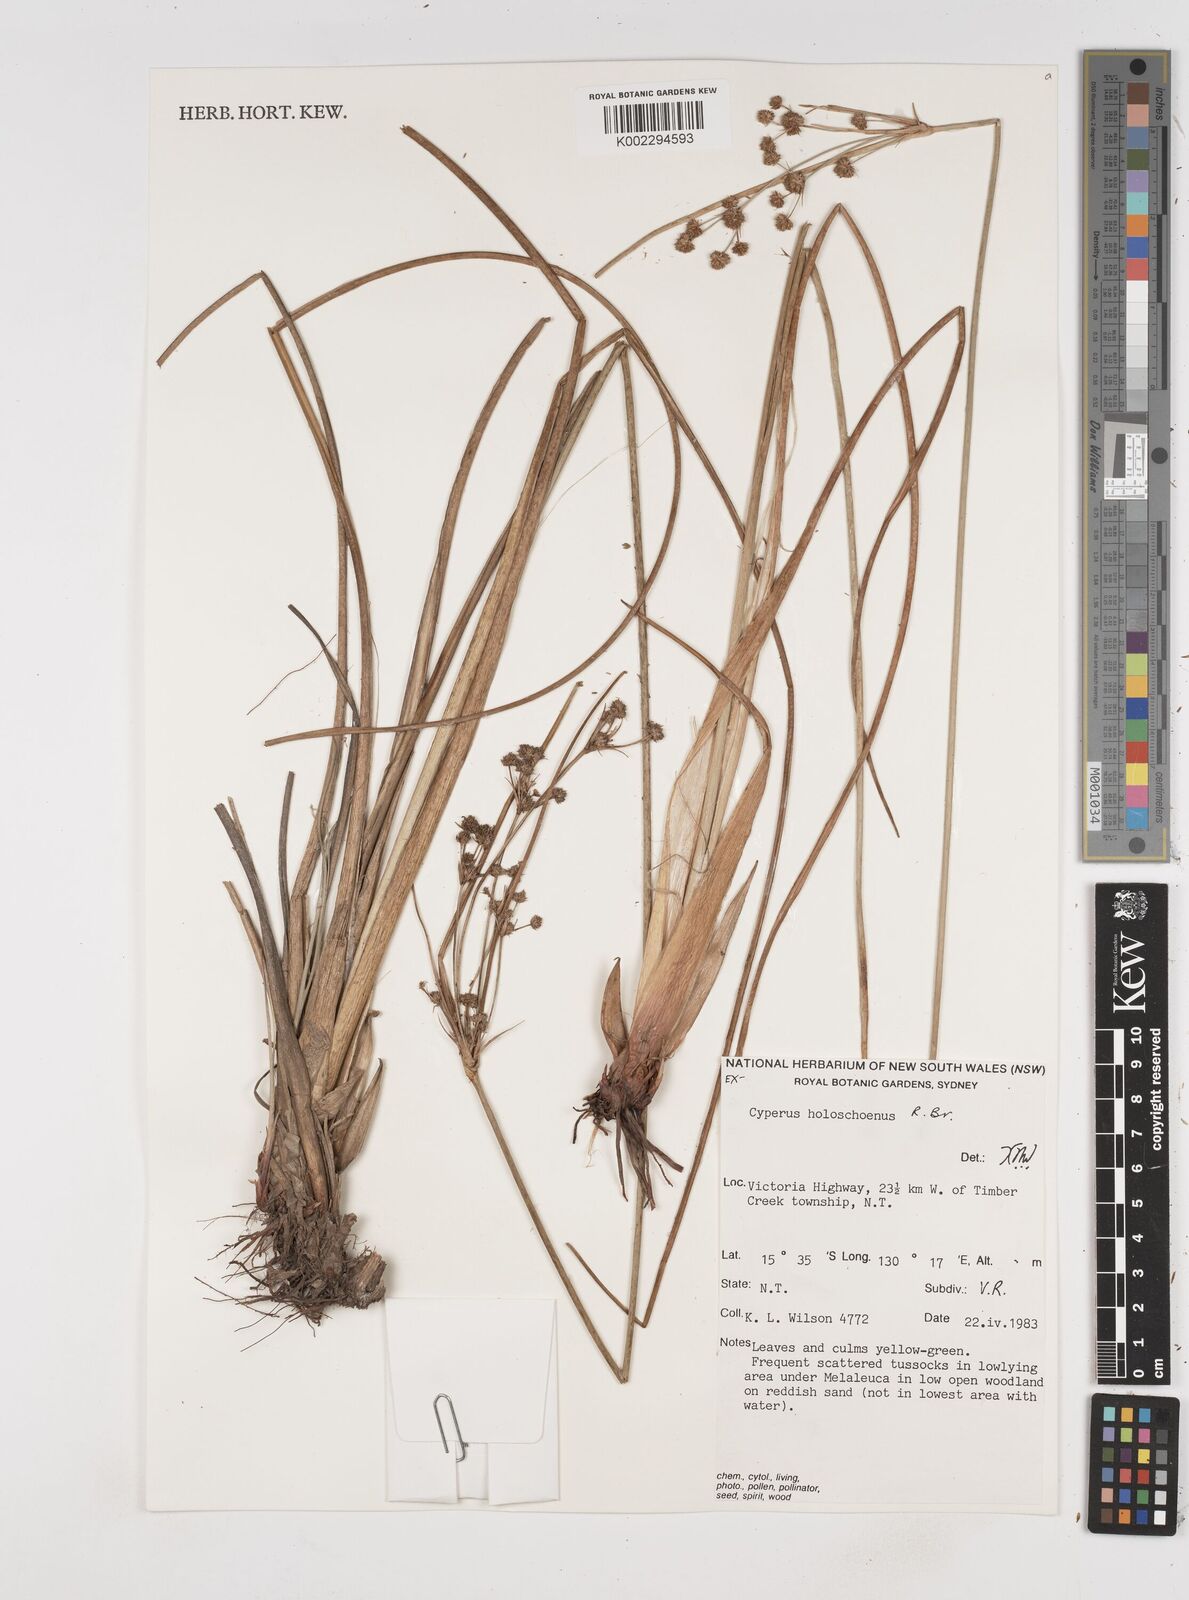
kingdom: Plantae
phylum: Tracheophyta
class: Liliopsida
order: Poales
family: Cyperaceae
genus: Cyperus
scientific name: Cyperus holoschoenus
